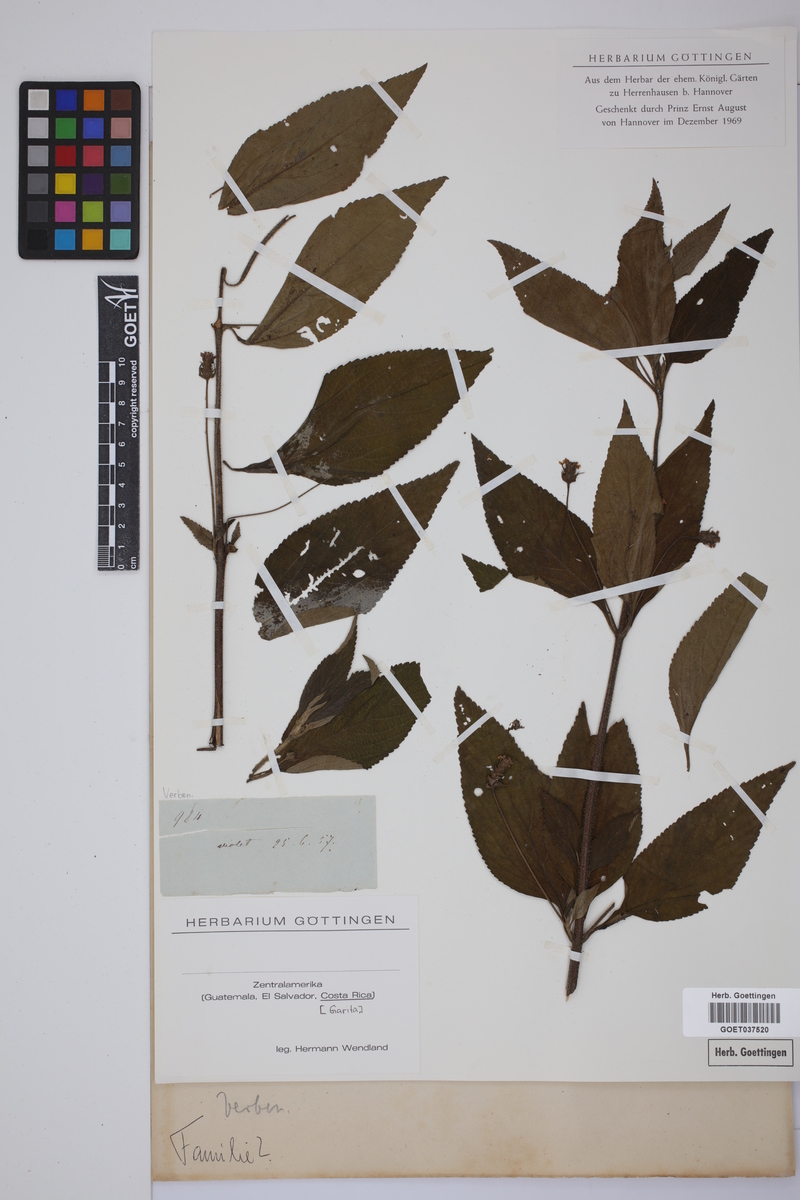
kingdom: Plantae
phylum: Tracheophyta
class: Magnoliopsida
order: Lamiales
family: Verbenaceae
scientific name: Verbenaceae
